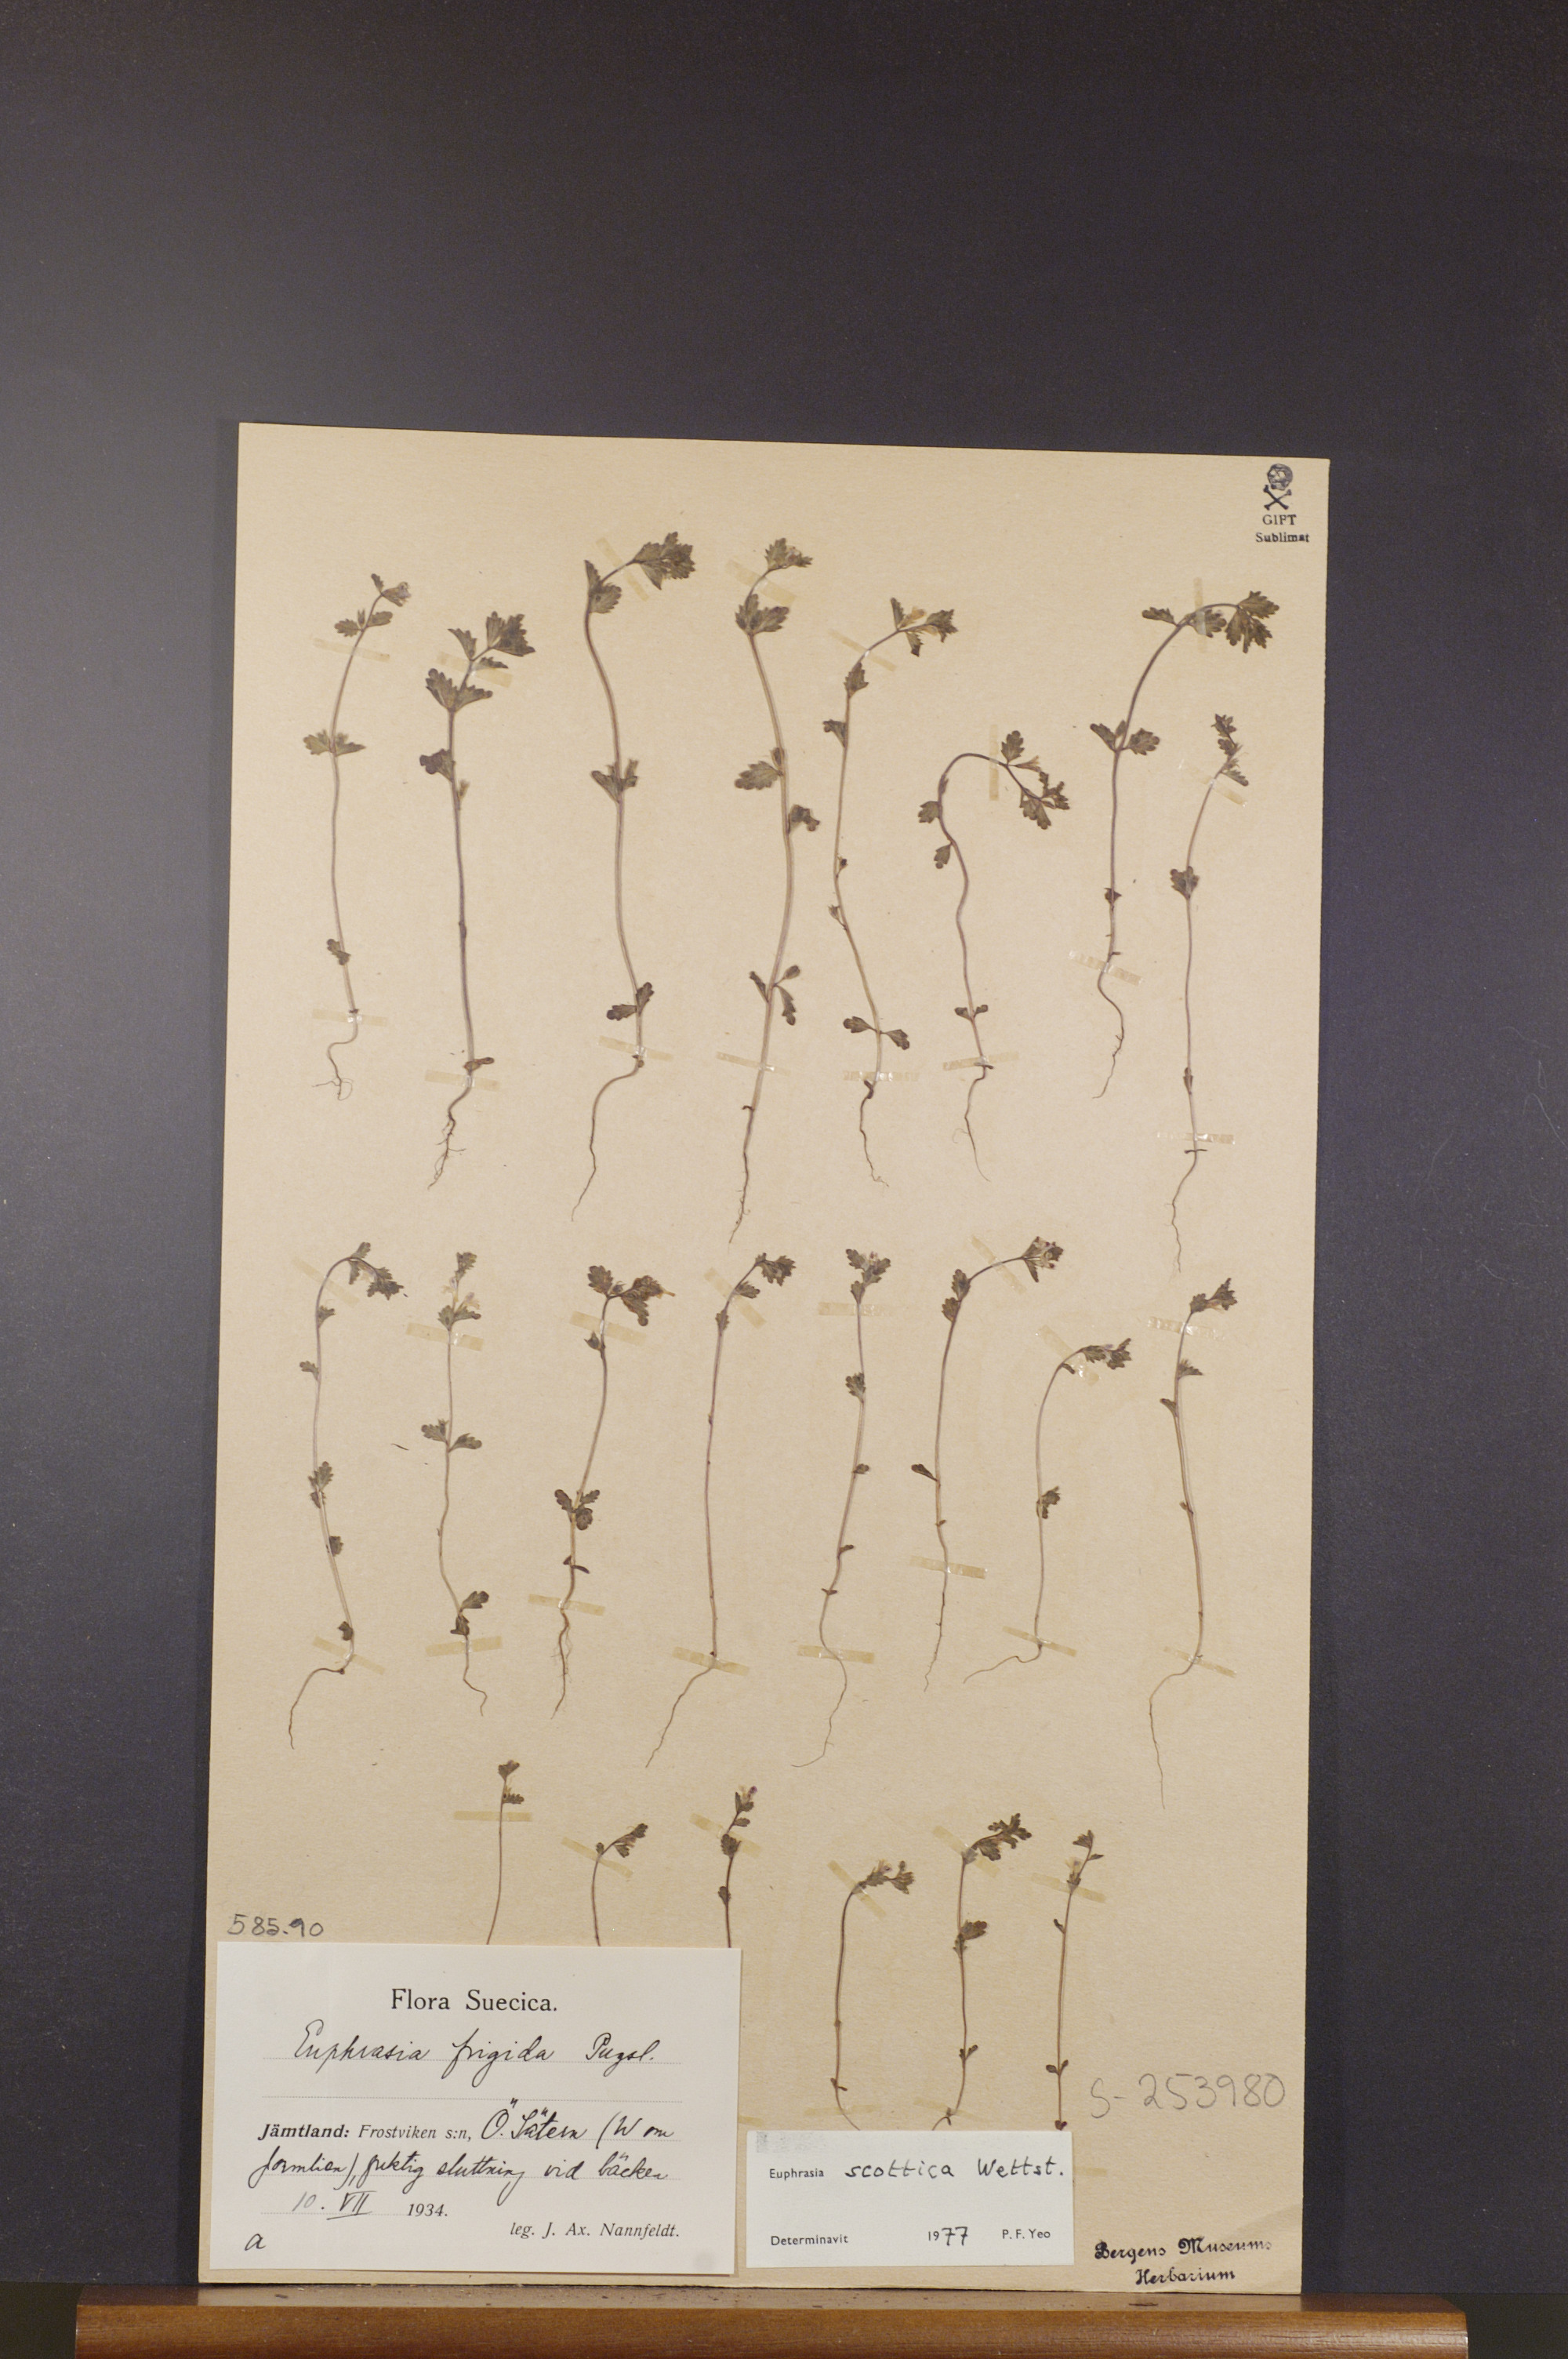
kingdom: Plantae
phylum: Tracheophyta
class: Magnoliopsida
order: Lamiales
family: Orobanchaceae
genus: Euphrasia
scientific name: Euphrasia scottica
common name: Slender scottish eyebright
